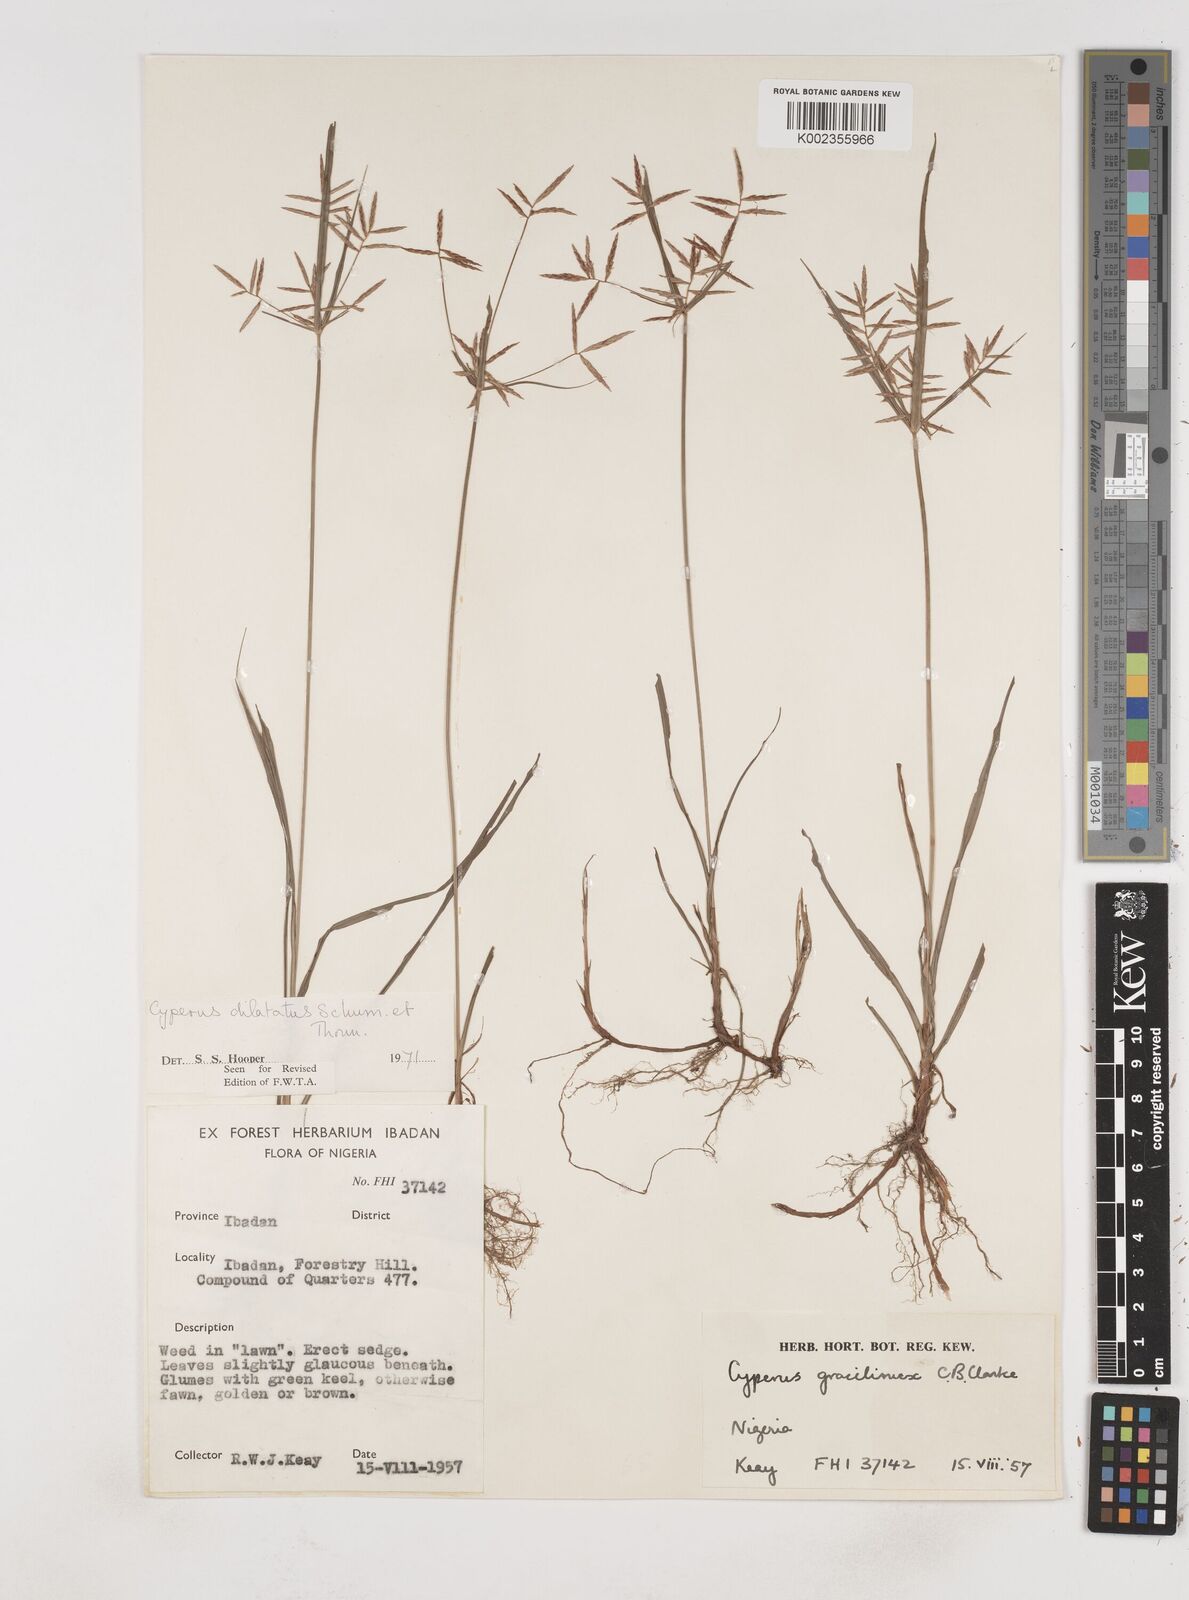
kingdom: Plantae
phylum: Tracheophyta
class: Liliopsida
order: Poales
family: Cyperaceae
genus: Cyperus
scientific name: Cyperus dilatatus
